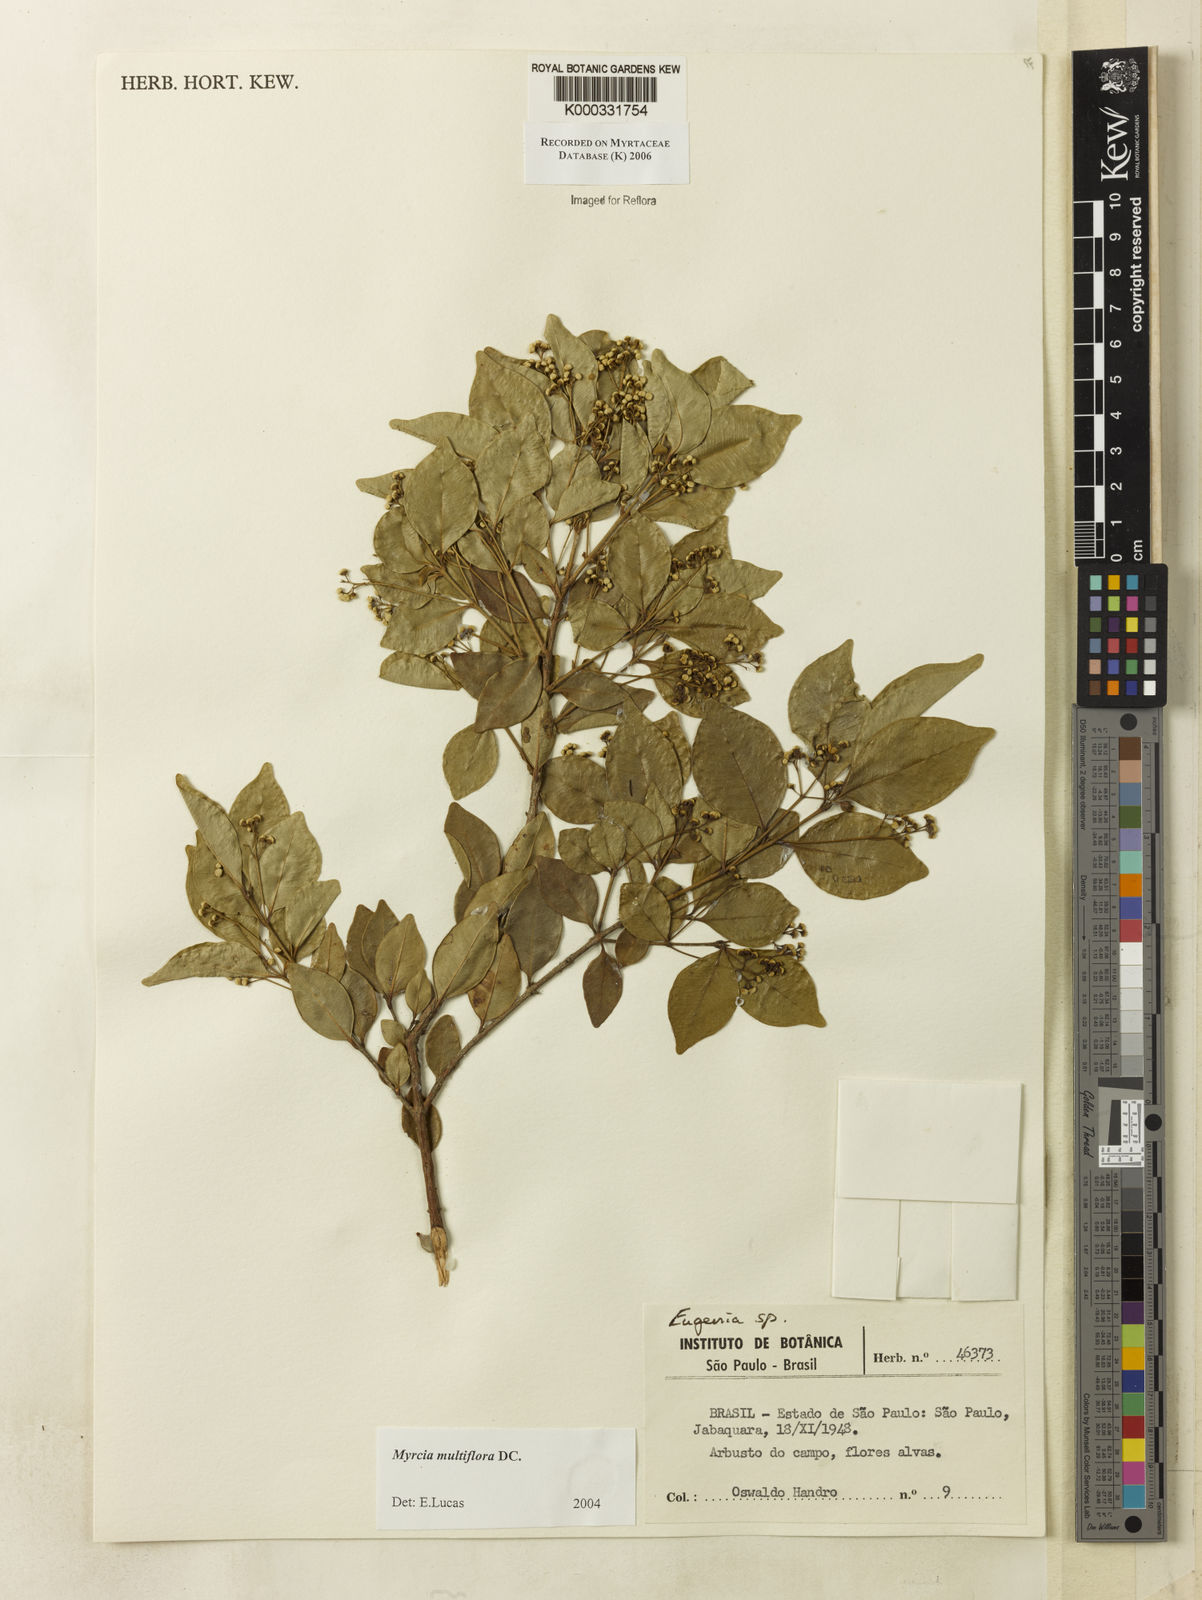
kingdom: Plantae
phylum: Tracheophyta
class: Magnoliopsida
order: Myrtales
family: Myrtaceae
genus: Myrcia
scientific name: Myrcia multiflora
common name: Pedra hume
